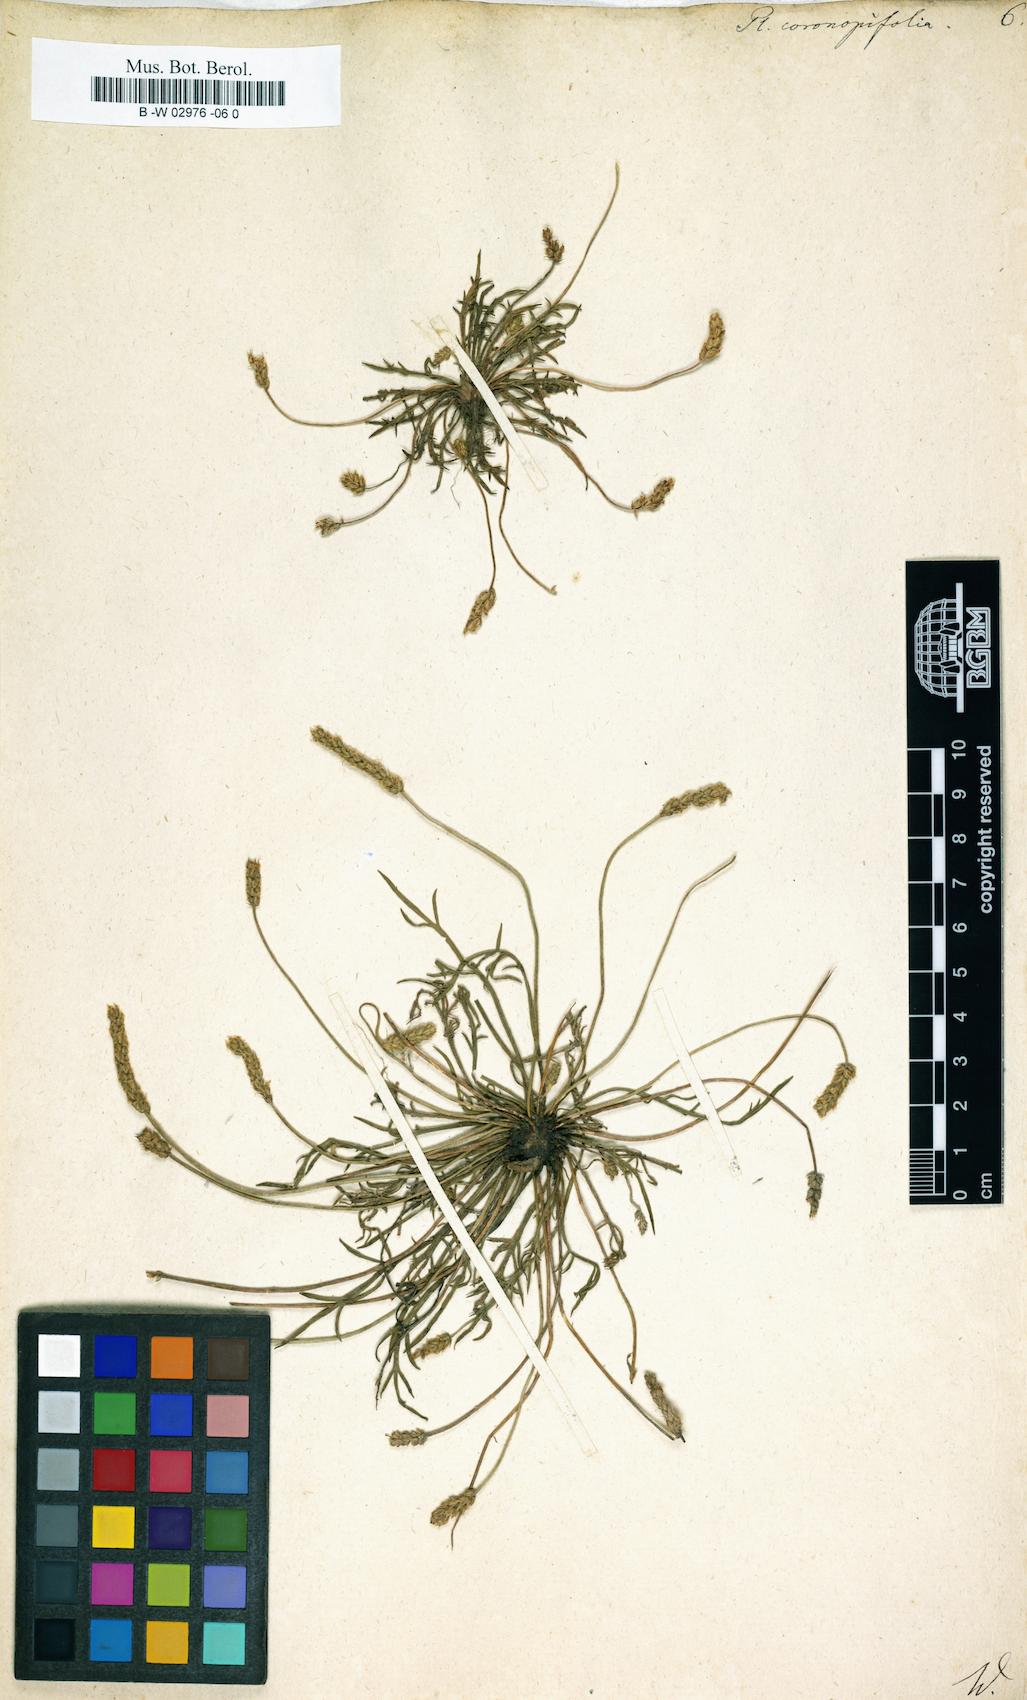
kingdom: Plantae
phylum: Tracheophyta
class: Magnoliopsida
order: Lamiales
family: Plantaginaceae
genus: Plantago
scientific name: Plantago
